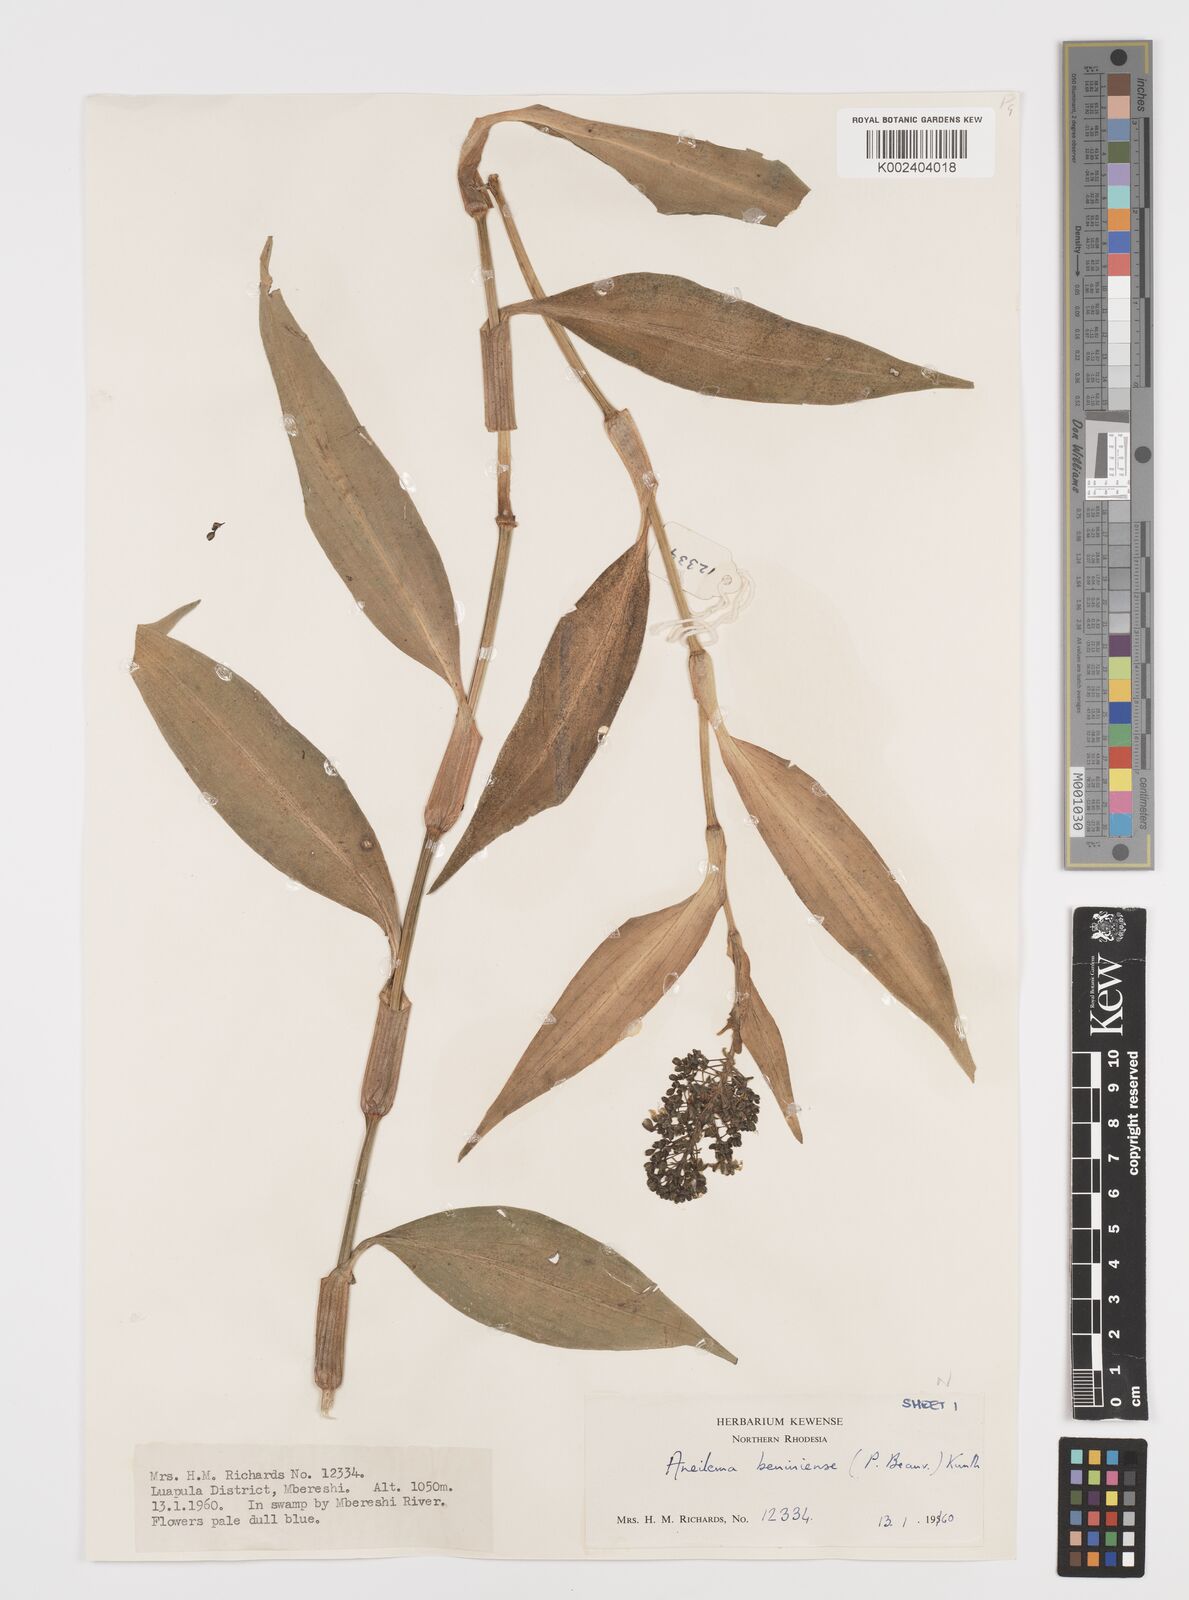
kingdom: Plantae
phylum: Tracheophyta
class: Liliopsida
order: Commelinales
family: Commelinaceae
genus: Aneilema
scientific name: Aneilema beniniense
